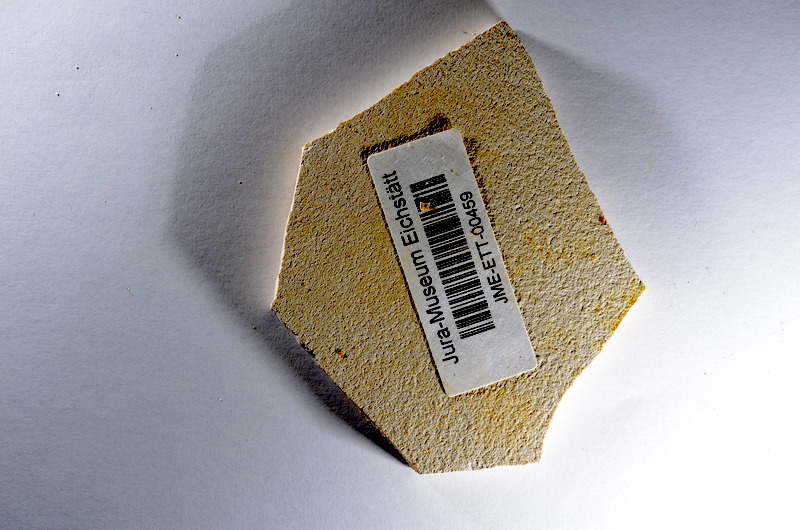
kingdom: Animalia
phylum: Chordata
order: Salmoniformes
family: Orthogonikleithridae
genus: Orthogonikleithrus
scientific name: Orthogonikleithrus hoelli
